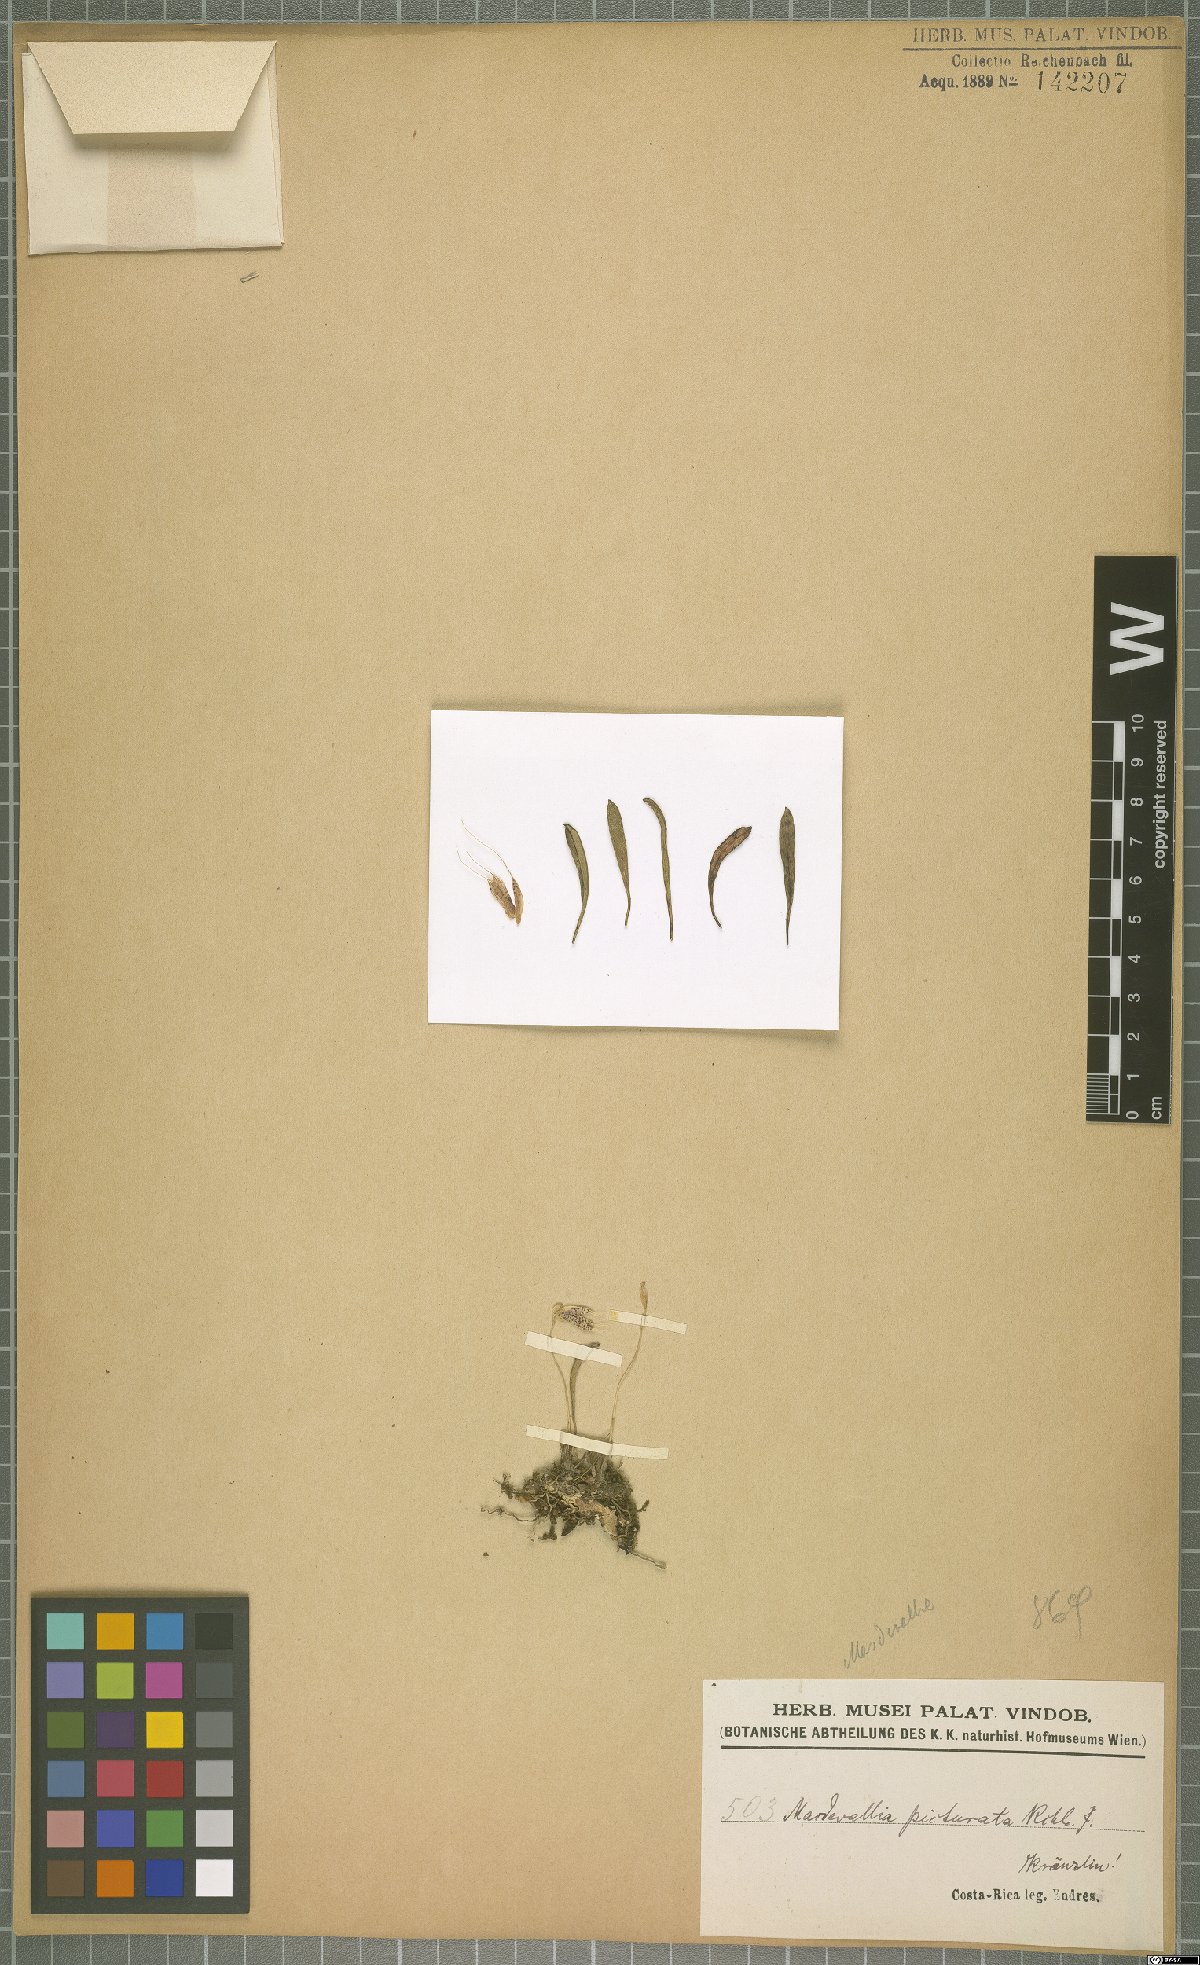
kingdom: Plantae
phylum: Tracheophyta
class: Liliopsida
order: Asparagales
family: Orchidaceae
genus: Masdevallia
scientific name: Masdevallia picturata
